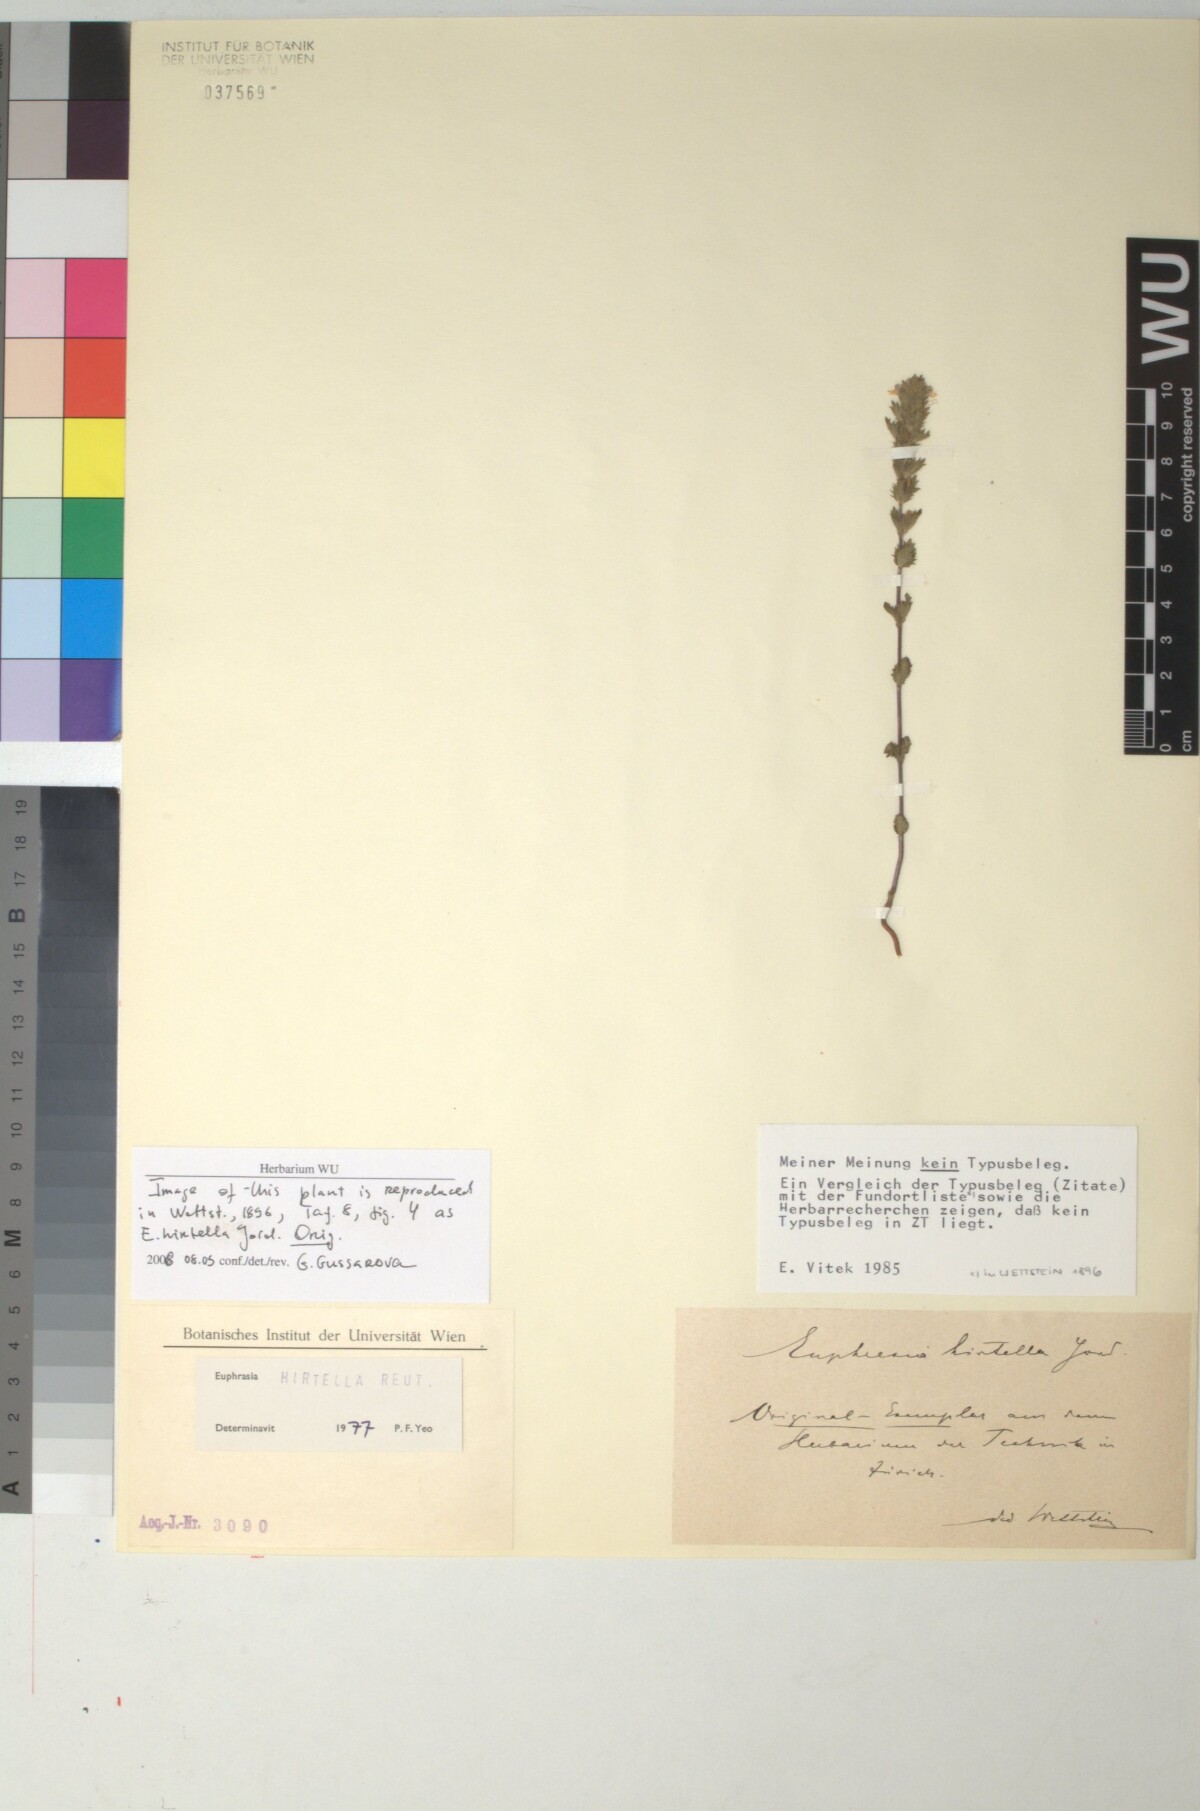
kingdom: Plantae
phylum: Tracheophyta
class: Magnoliopsida
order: Lamiales
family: Orobanchaceae
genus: Euphrasia
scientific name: Euphrasia hirtella
